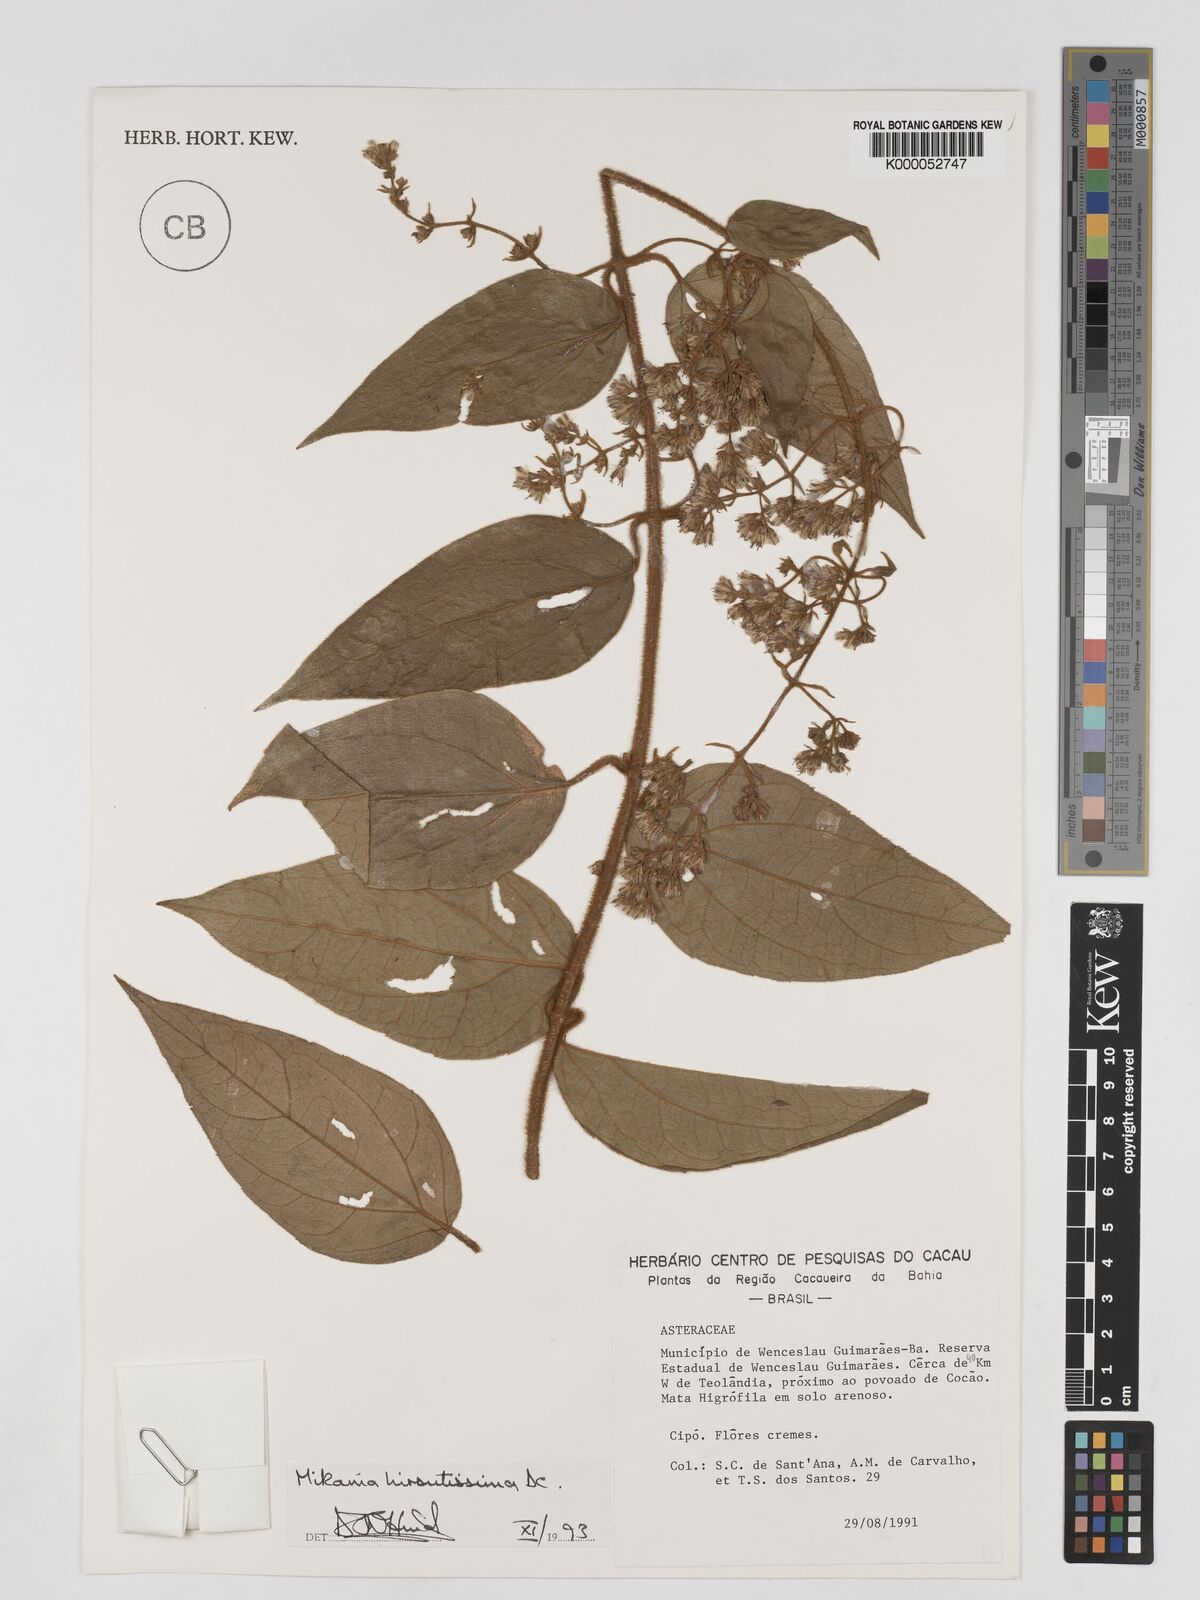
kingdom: Plantae
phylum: Tracheophyta
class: Magnoliopsida
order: Asterales
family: Asteraceae
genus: Mikania
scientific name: Mikania banisteriae
